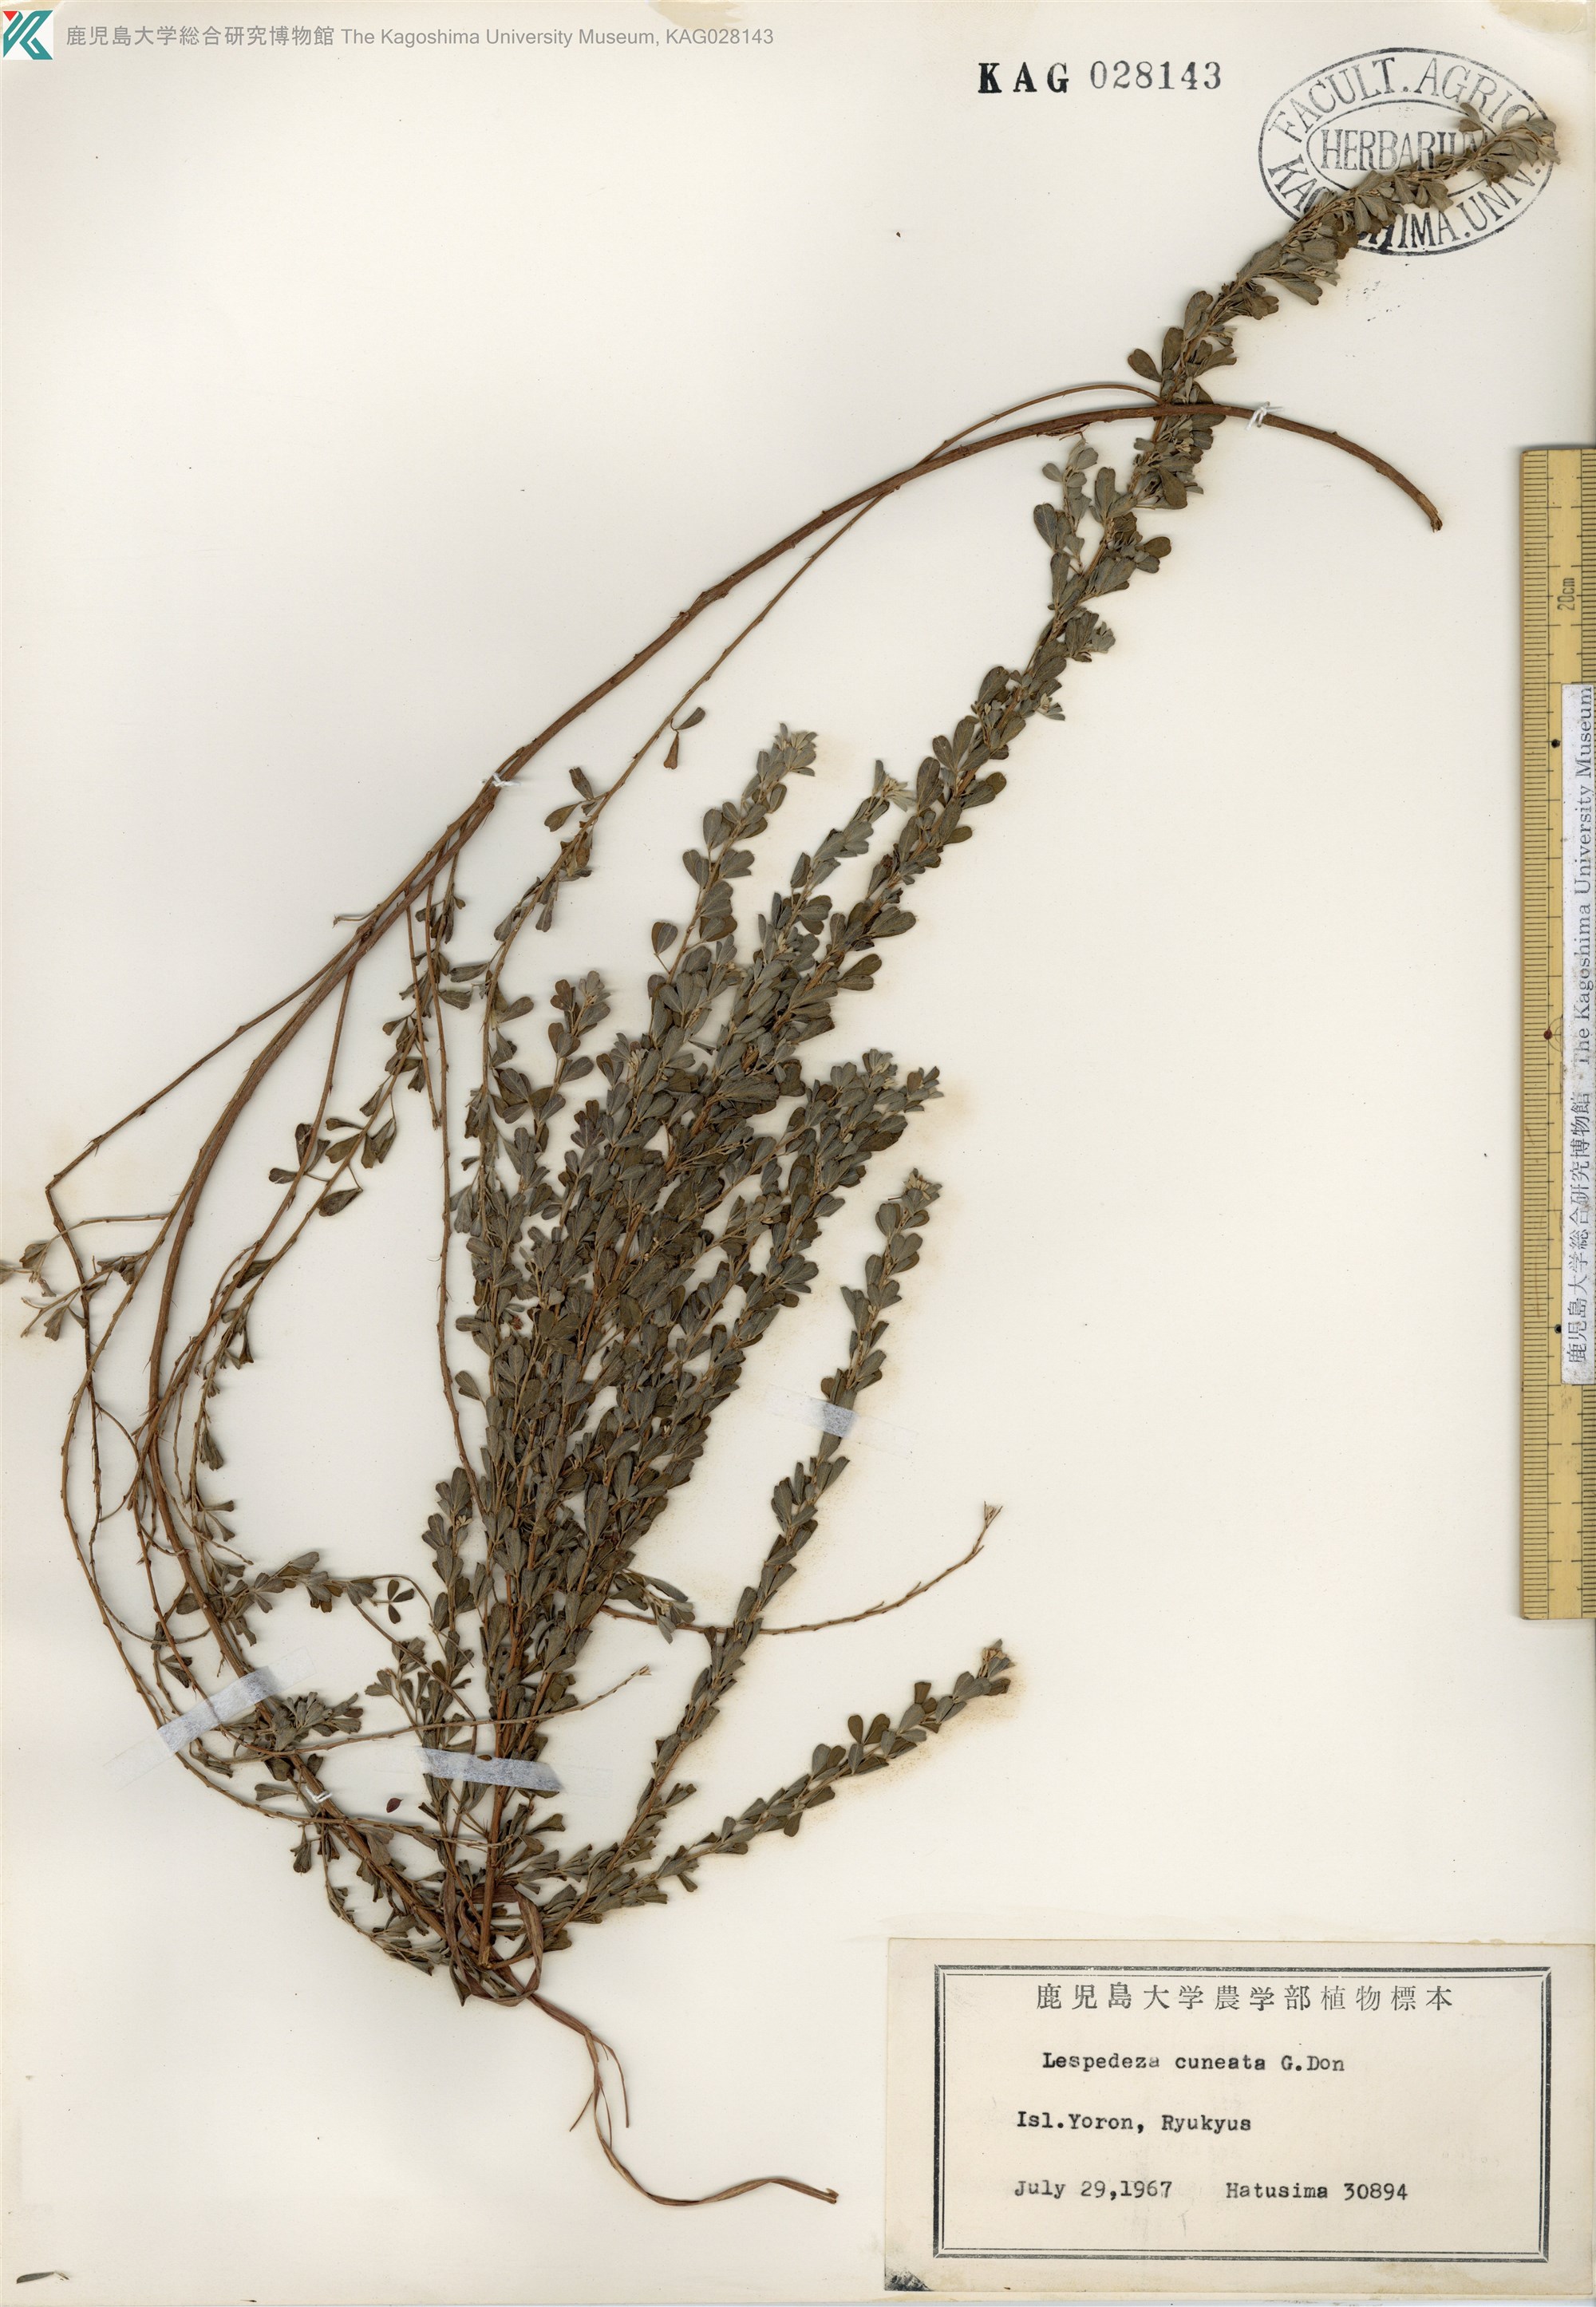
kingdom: Plantae
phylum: Tracheophyta
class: Magnoliopsida
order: Fabales
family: Fabaceae
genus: Lespedeza
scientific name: Lespedeza cuneata
